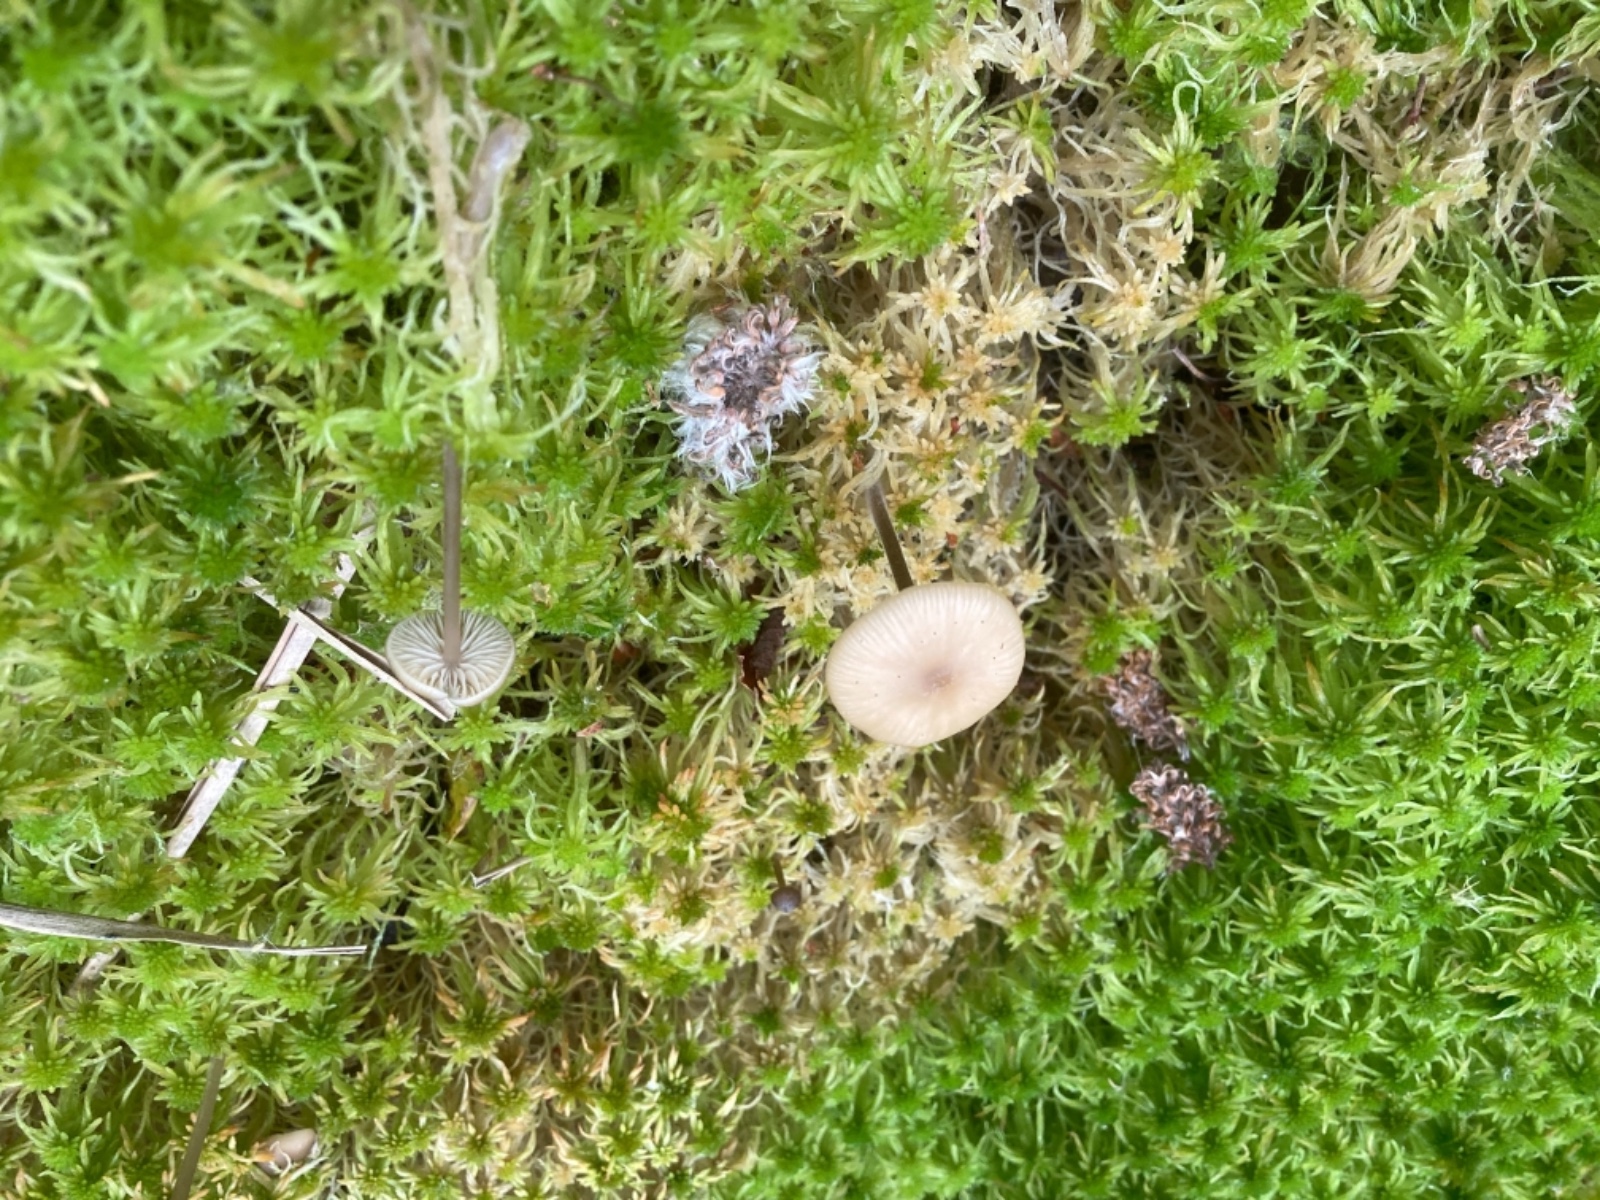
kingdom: Fungi
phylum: Basidiomycota
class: Agaricomycetes
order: Agaricales
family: Lyophyllaceae
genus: Sphagnurus
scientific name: Sphagnurus paluster
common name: tørvemos-gråblad
